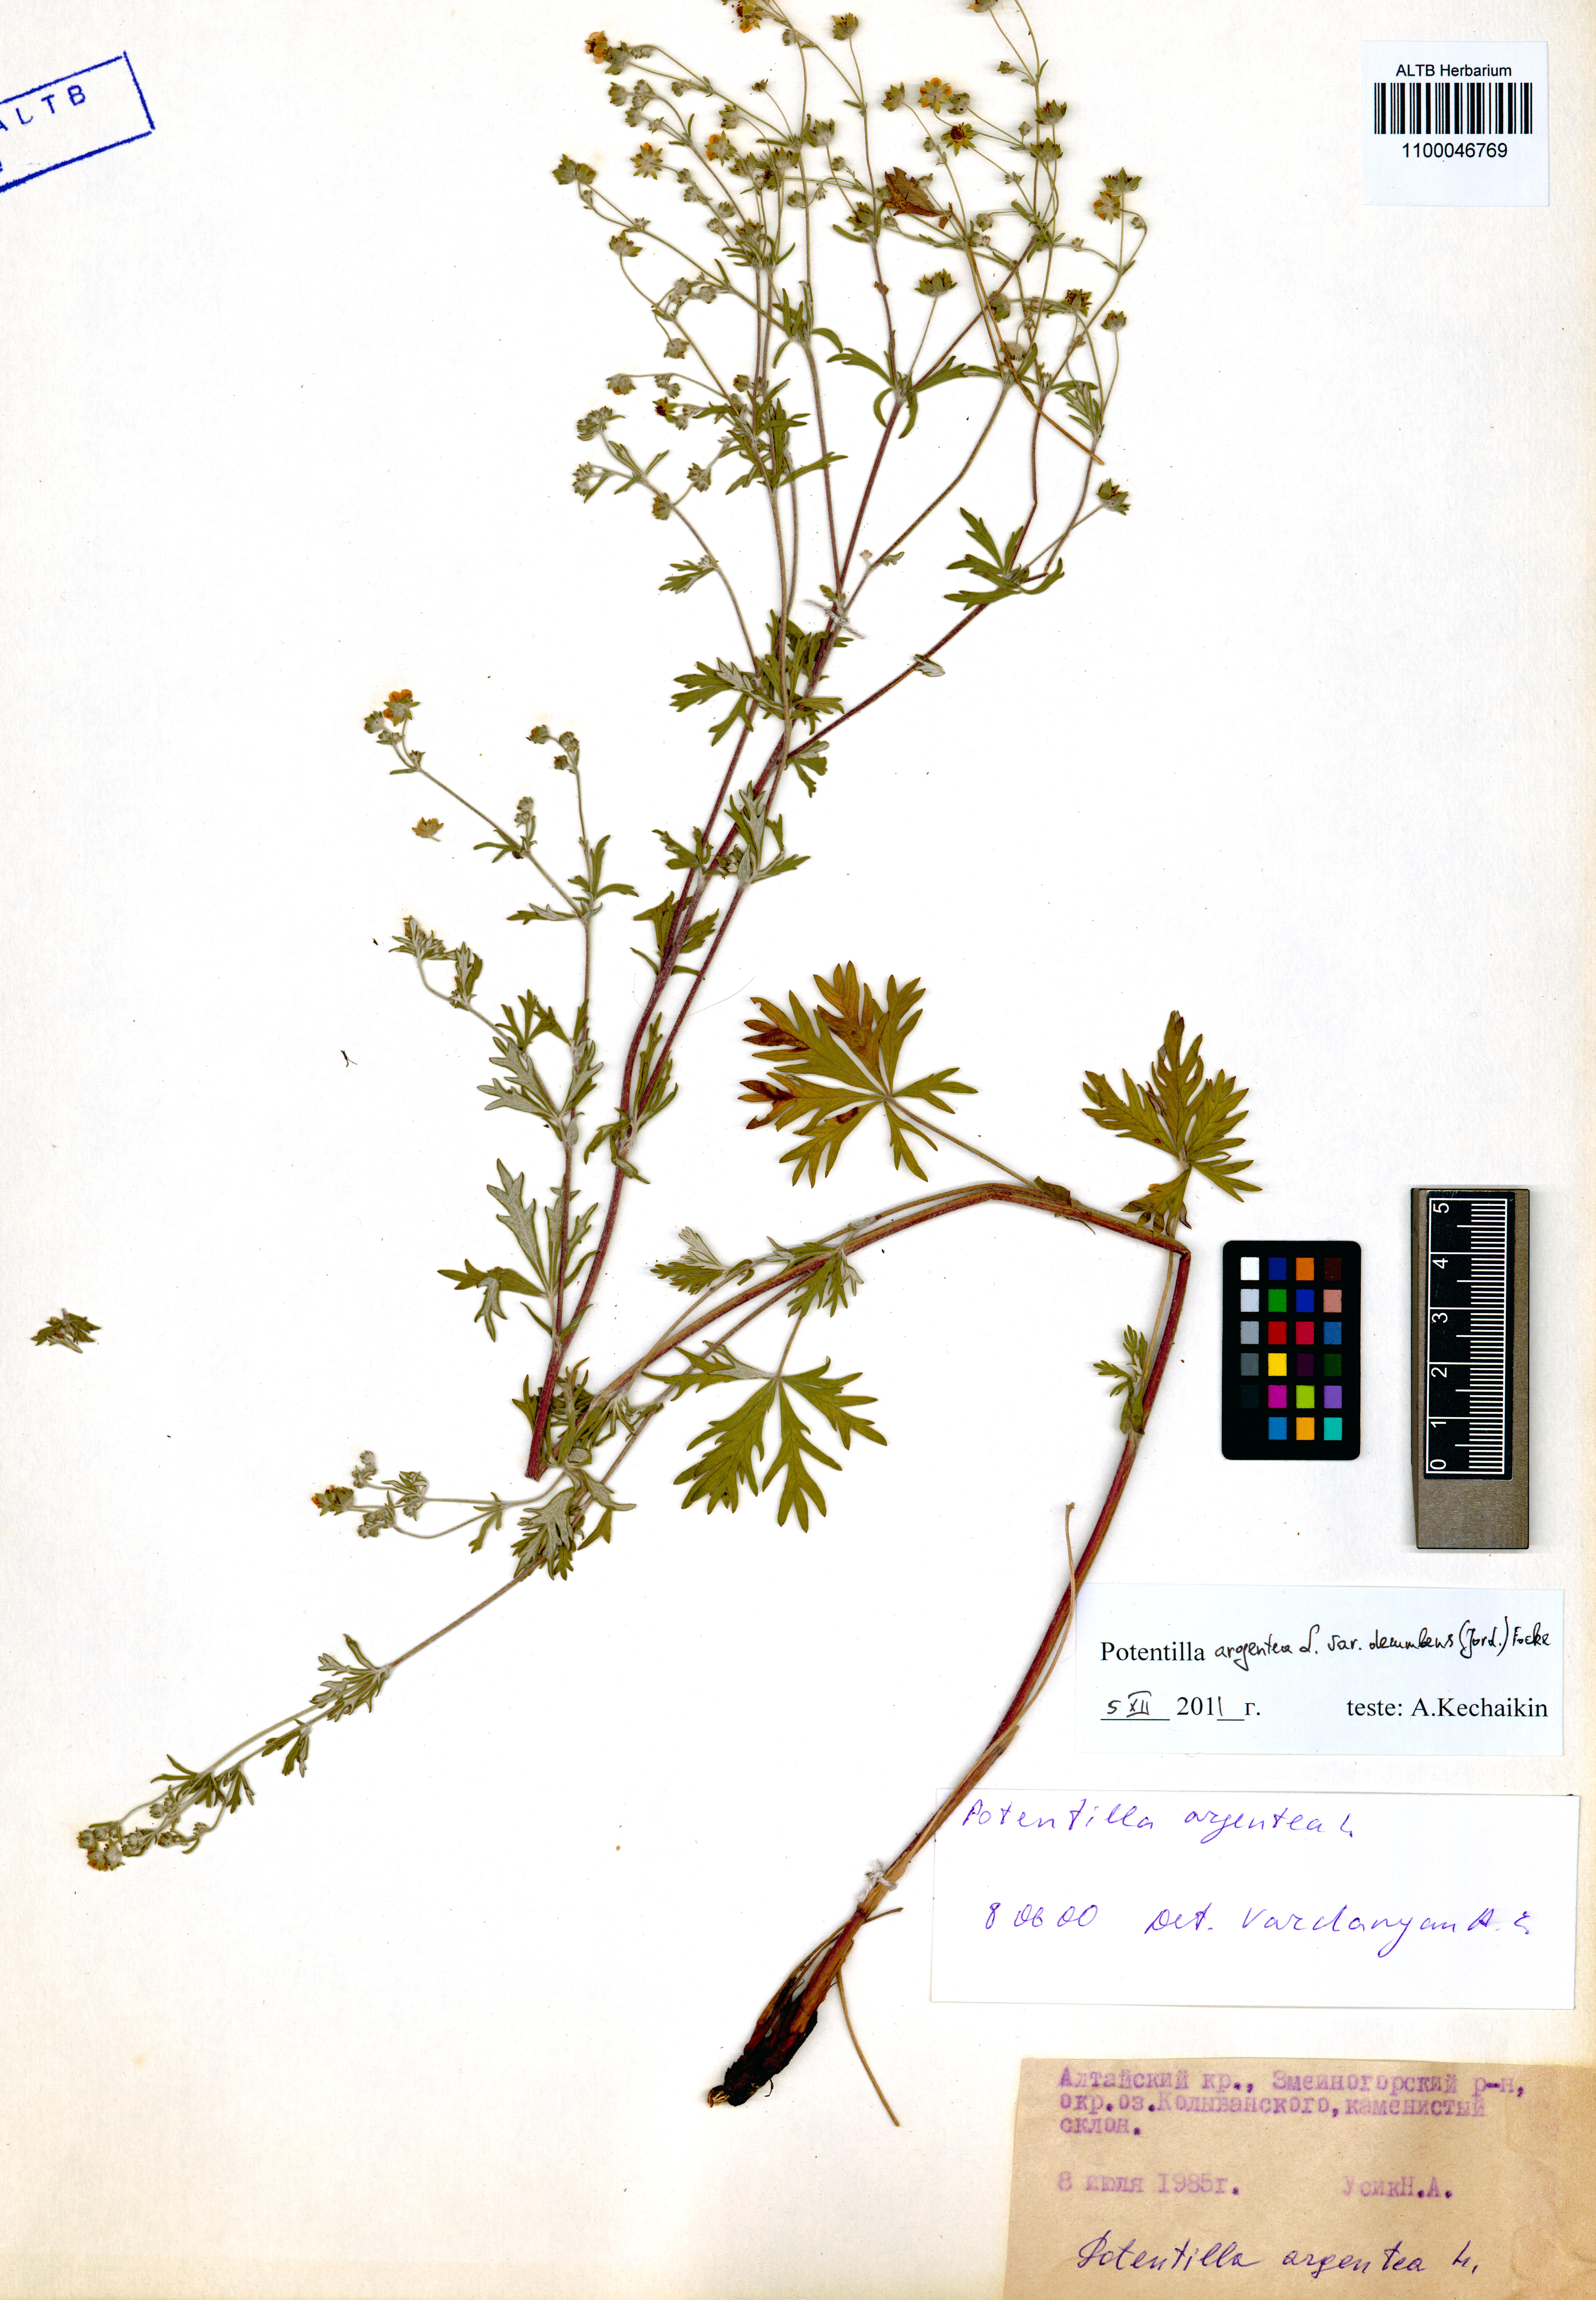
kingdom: Plantae
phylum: Tracheophyta
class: Magnoliopsida
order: Rosales
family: Rosaceae
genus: Potentilla
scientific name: Potentilla argentea
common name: Hoary cinquefoil
